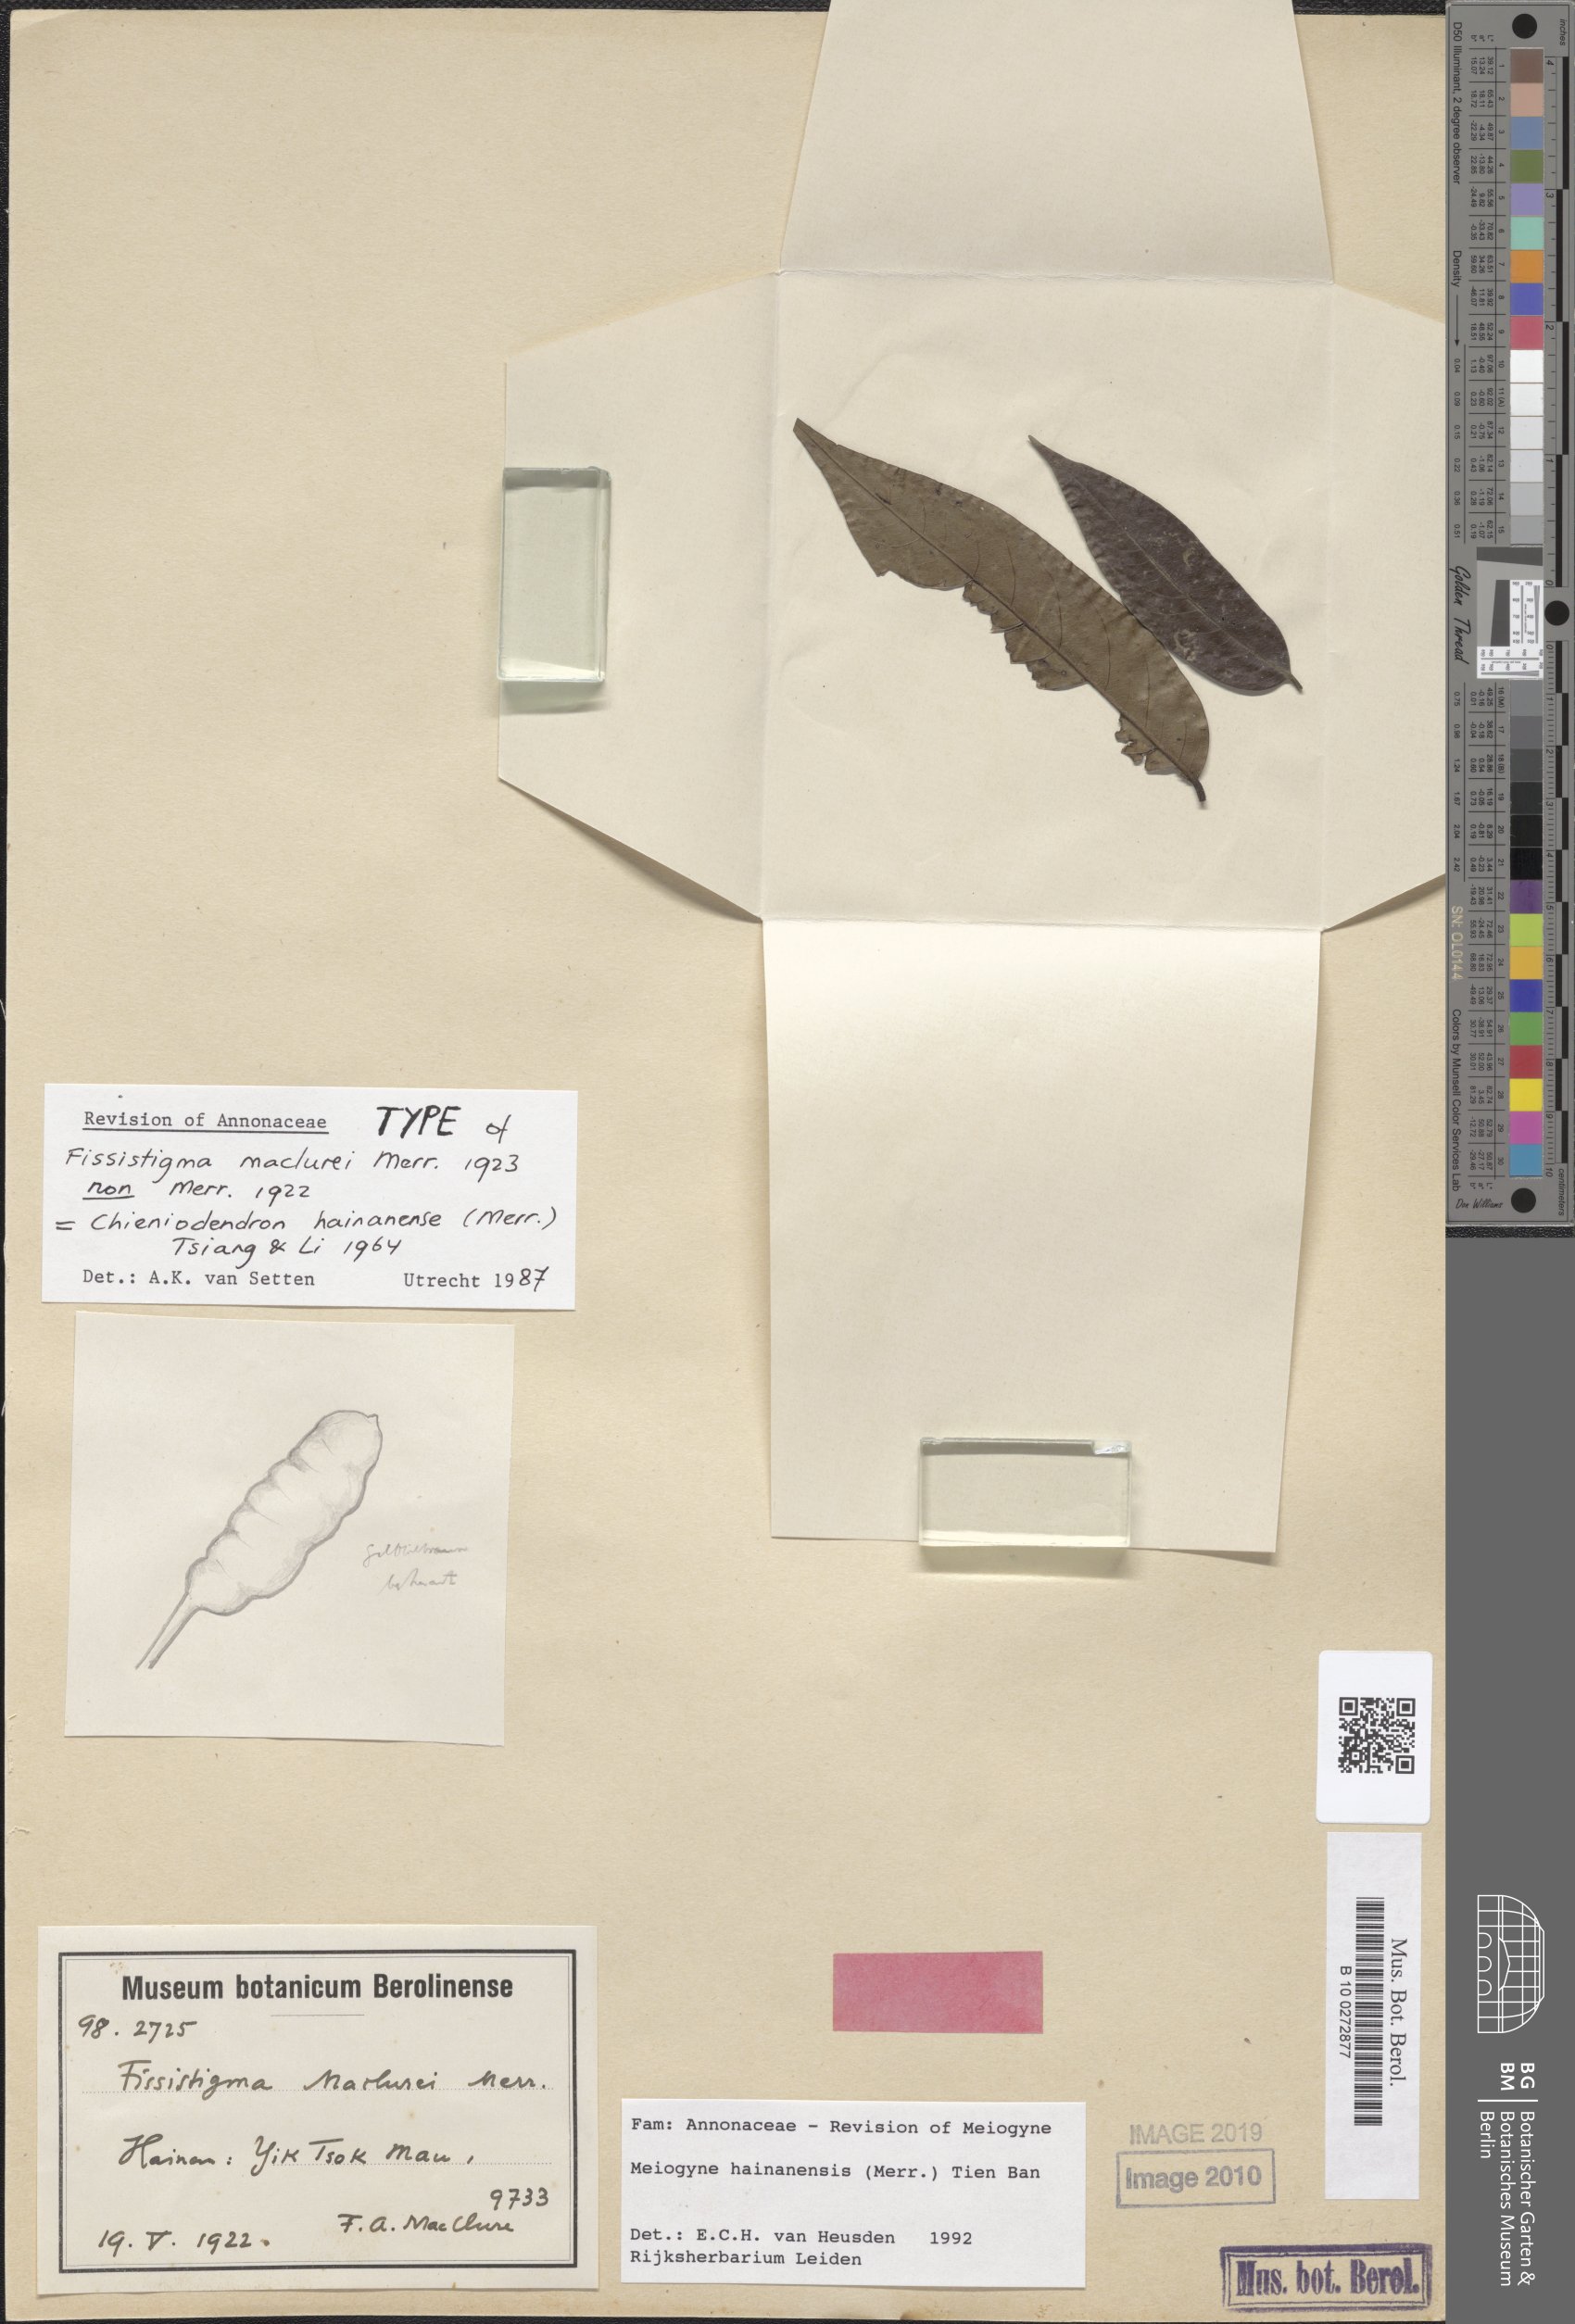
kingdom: Plantae
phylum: Tracheophyta
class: Magnoliopsida
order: Magnoliales
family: Annonaceae
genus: Meiogyne
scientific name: Meiogyne hainanensis
